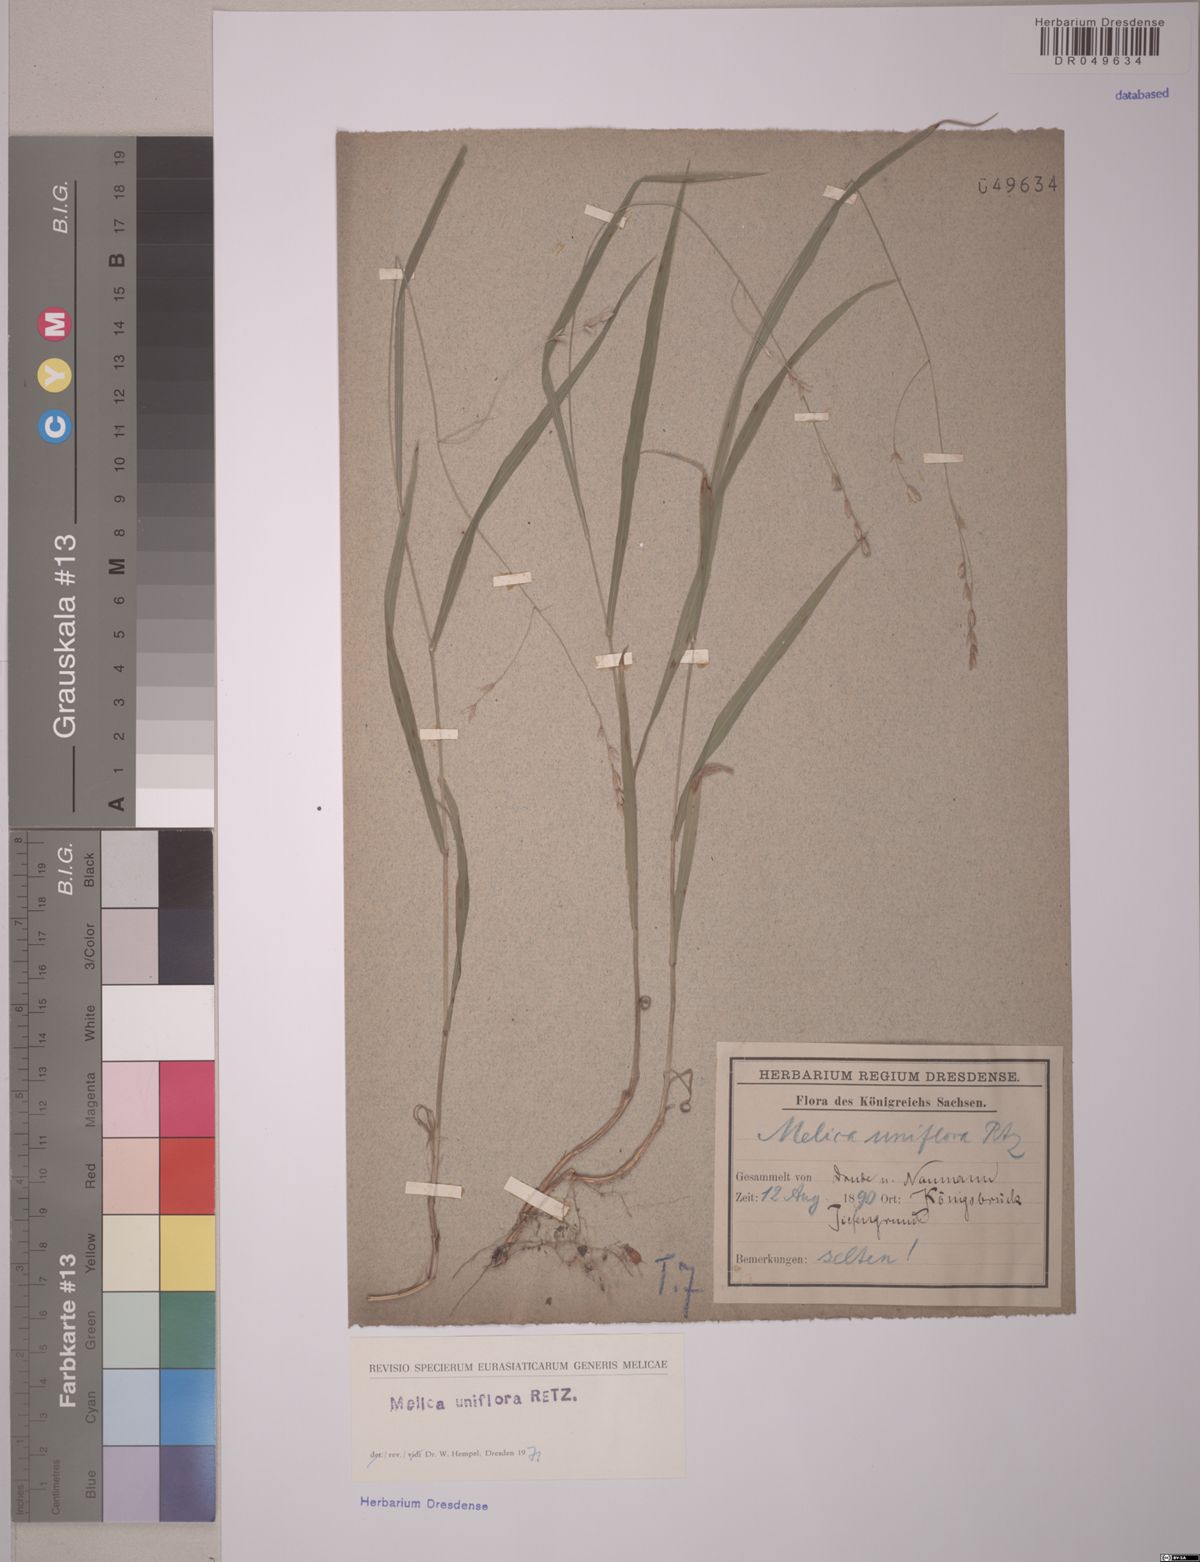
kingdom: Plantae
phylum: Tracheophyta
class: Liliopsida
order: Poales
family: Poaceae
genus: Melica
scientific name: Melica uniflora
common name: Wood melick
